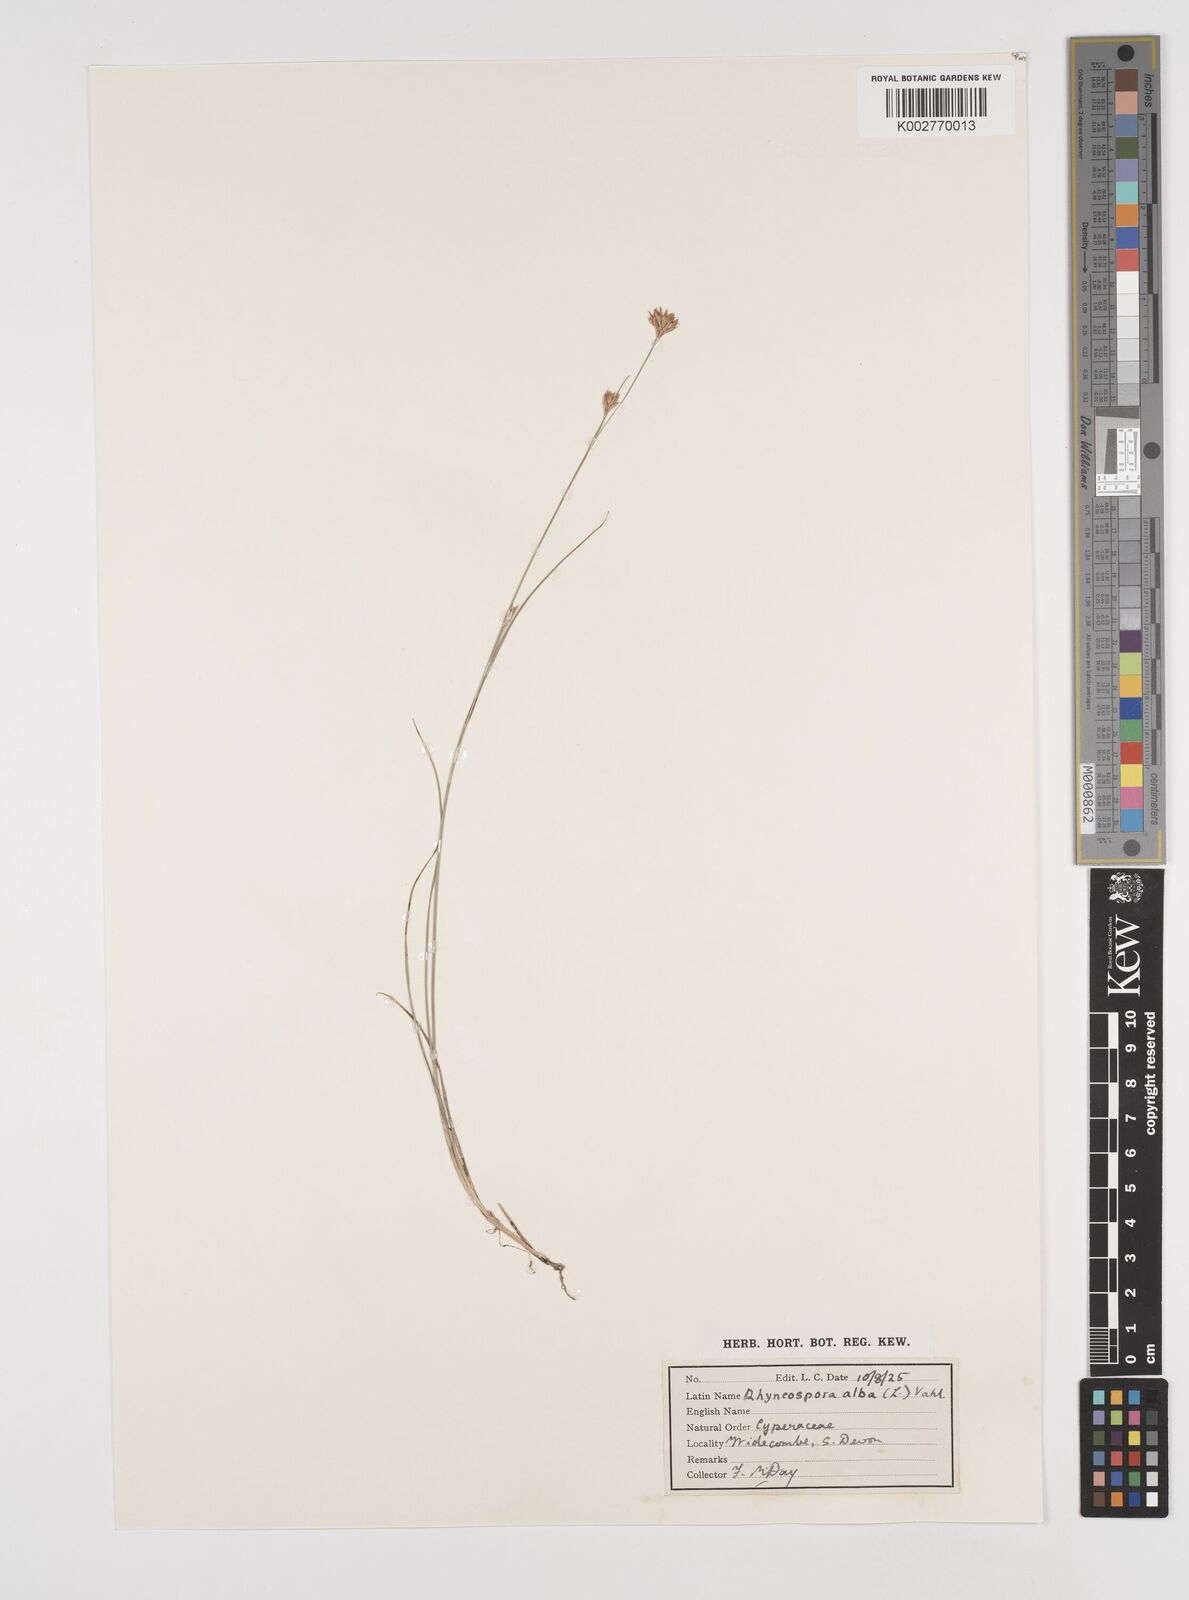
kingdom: Plantae
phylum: Tracheophyta
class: Liliopsida
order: Poales
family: Cyperaceae
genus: Rhynchospora
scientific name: Rhynchospora alba
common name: White beak-sedge
